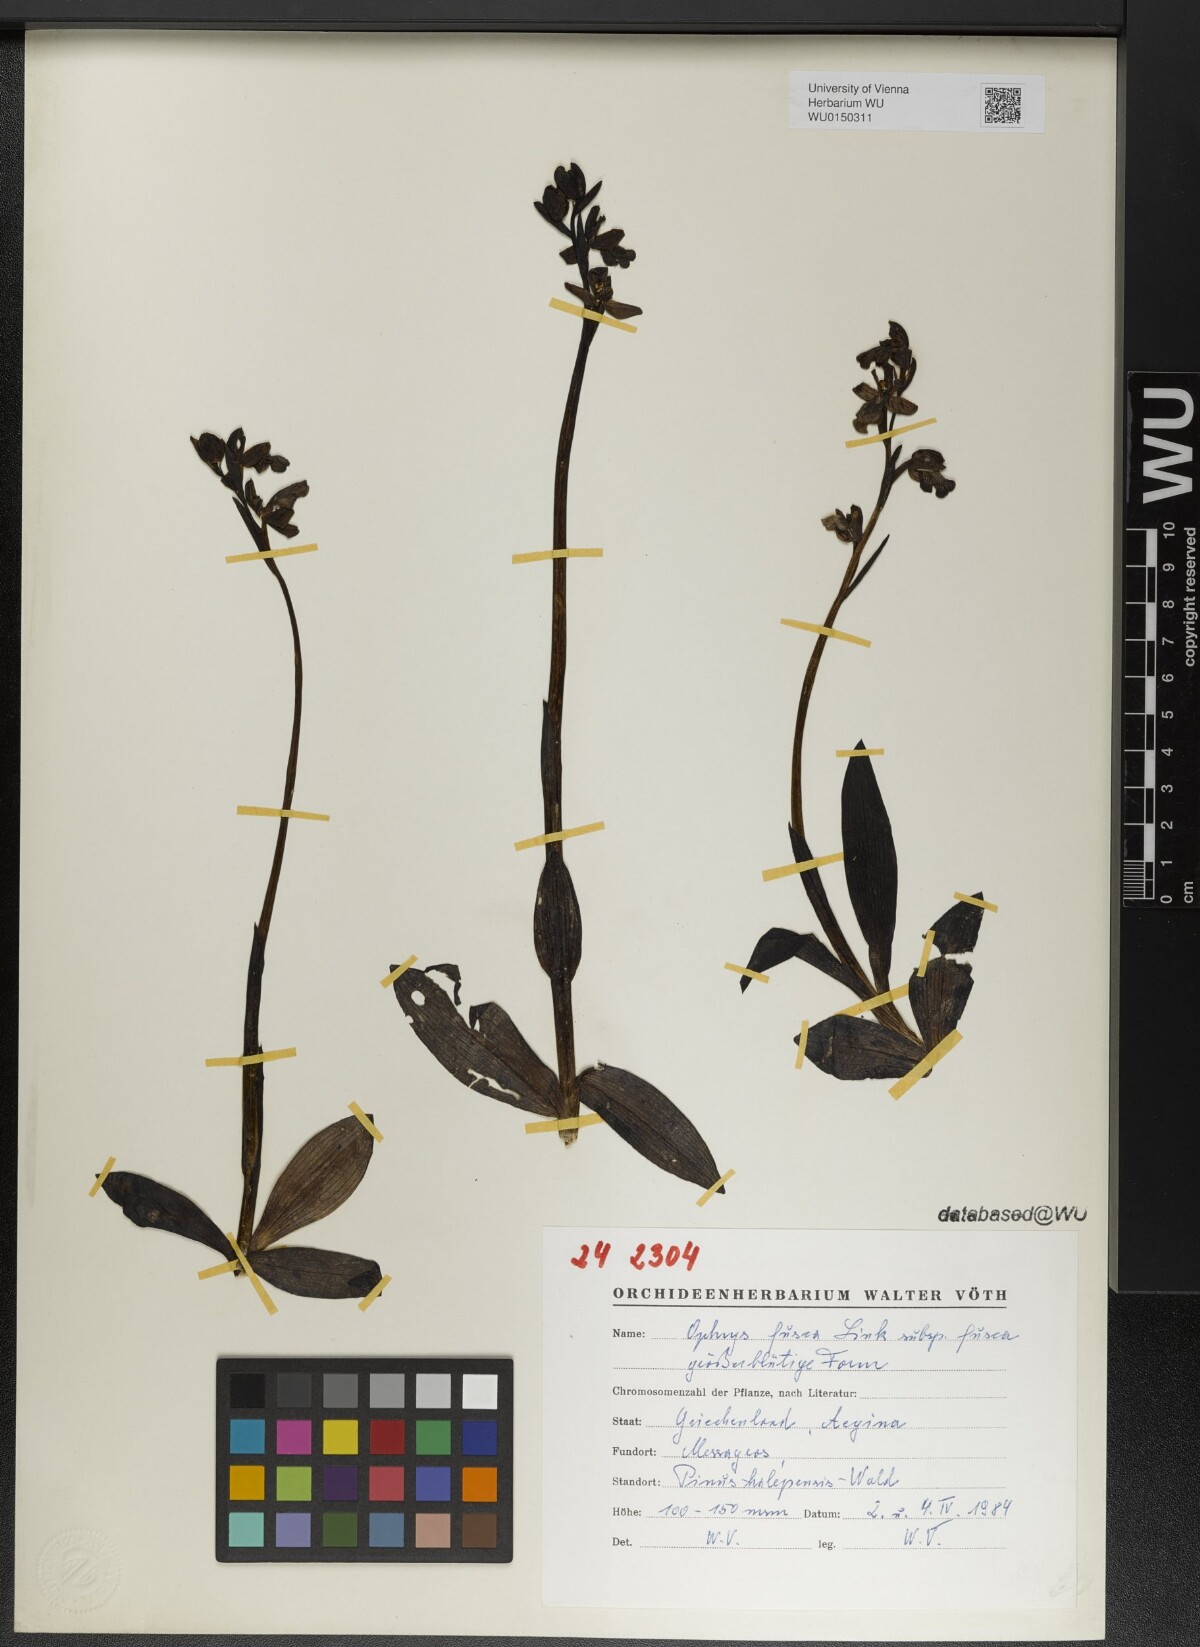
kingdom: Plantae
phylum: Tracheophyta
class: Liliopsida
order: Asparagales
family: Orchidaceae
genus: Ophrys
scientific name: Ophrys fusca
